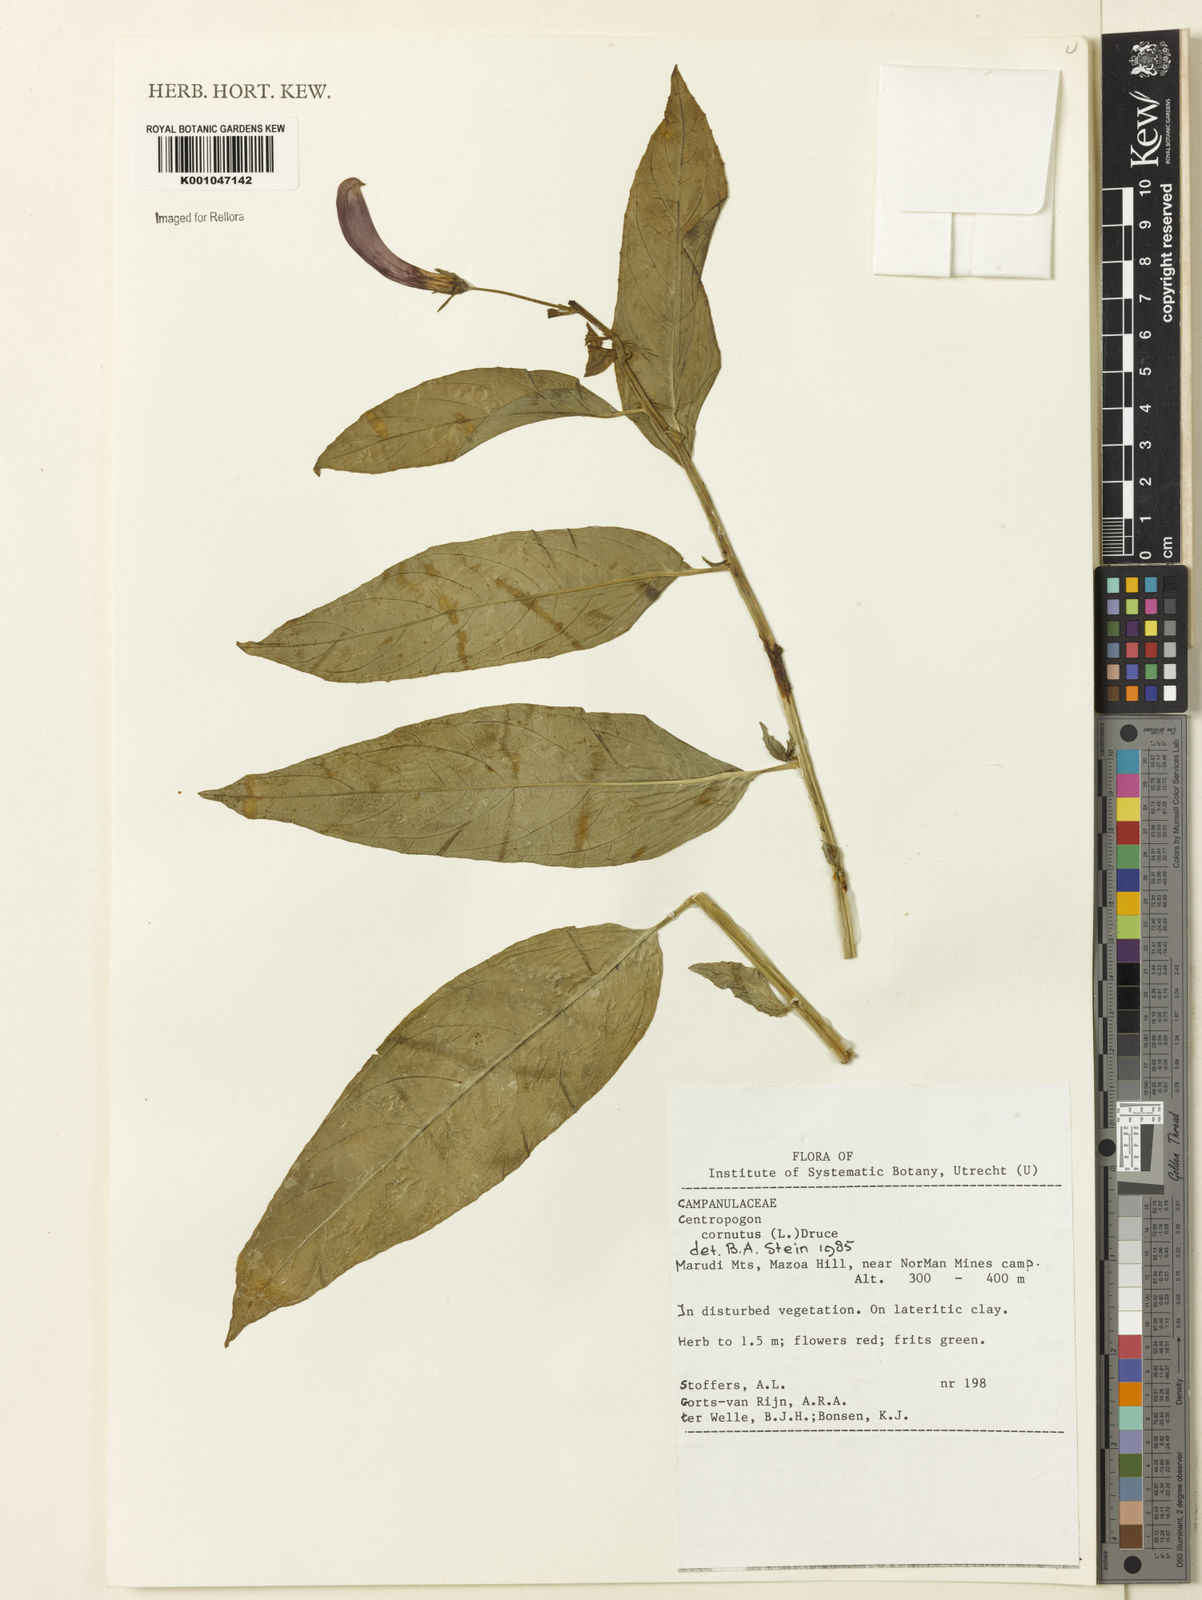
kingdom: Plantae
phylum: Tracheophyta
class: Magnoliopsida
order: Asterales
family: Campanulaceae
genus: Centropogon
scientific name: Centropogon cornutus
